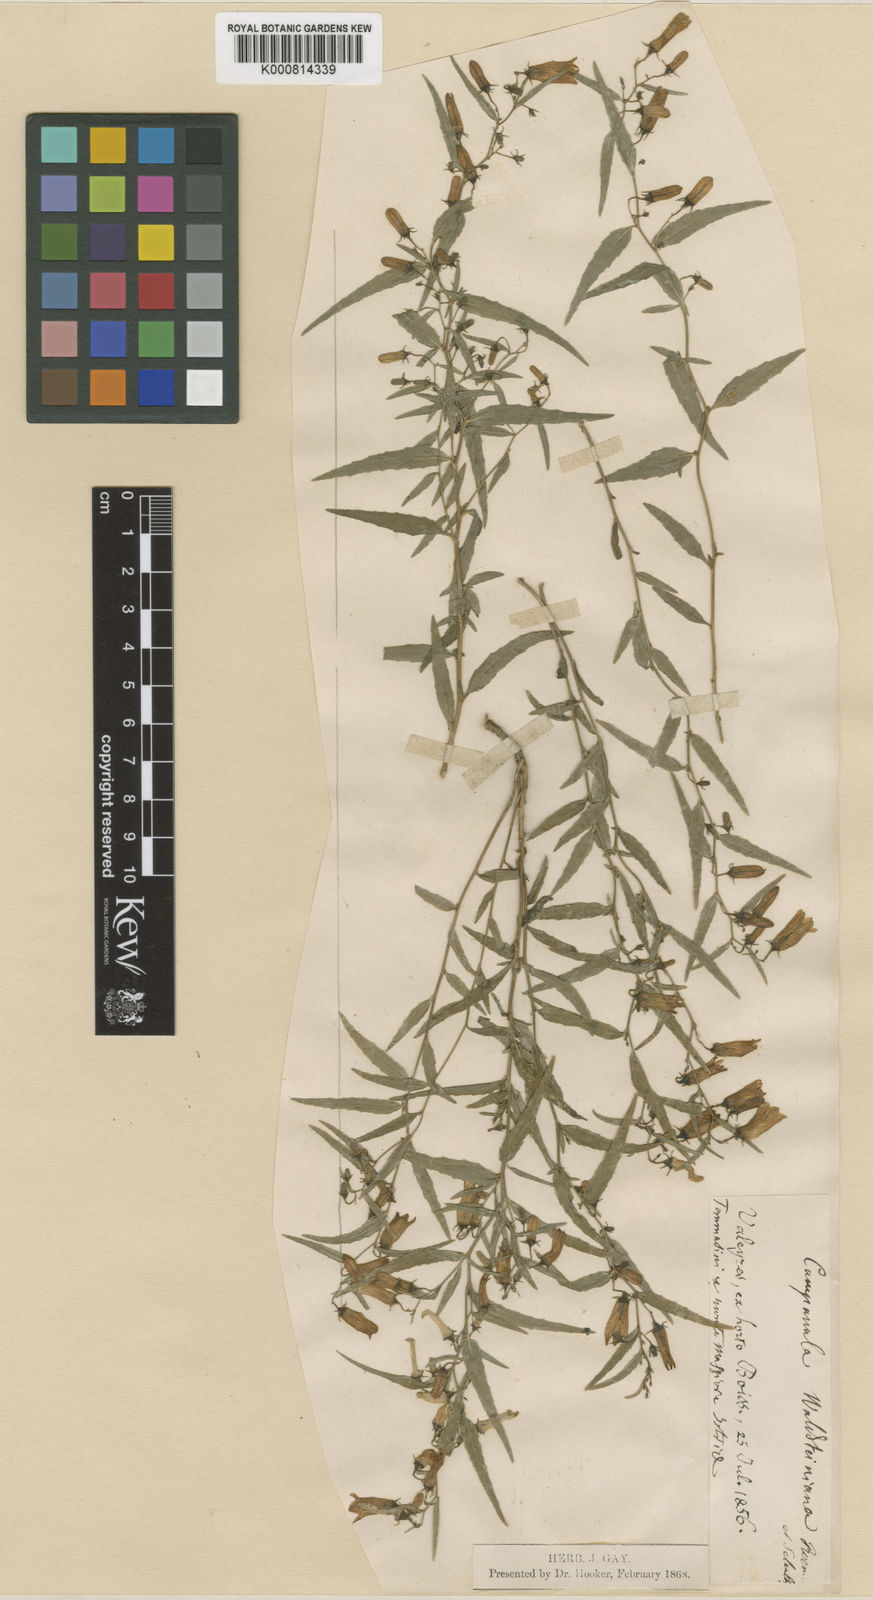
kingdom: Plantae
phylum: Tracheophyta
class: Magnoliopsida
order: Asterales
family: Campanulaceae
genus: Campanula
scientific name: Campanula
